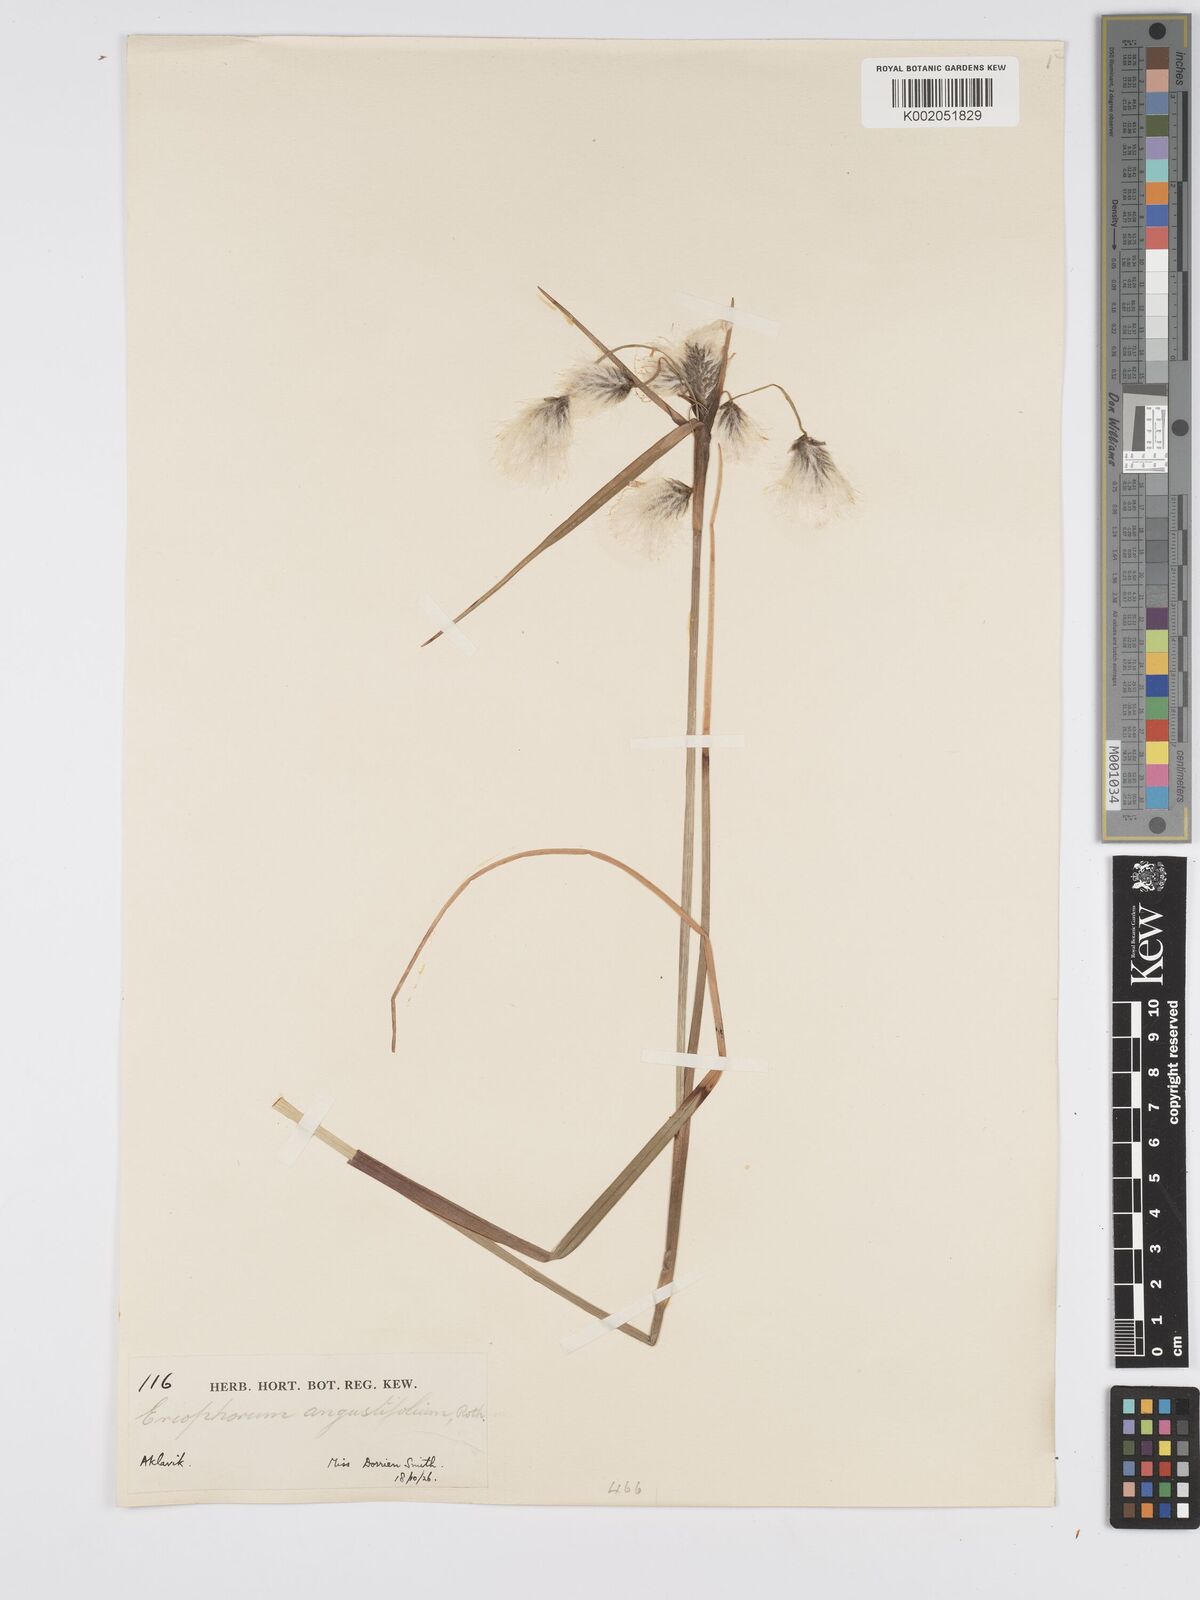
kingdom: Plantae
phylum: Tracheophyta
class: Liliopsida
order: Poales
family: Cyperaceae
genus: Eriophorum
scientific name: Eriophorum angustifolium
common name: Common cottongrass
